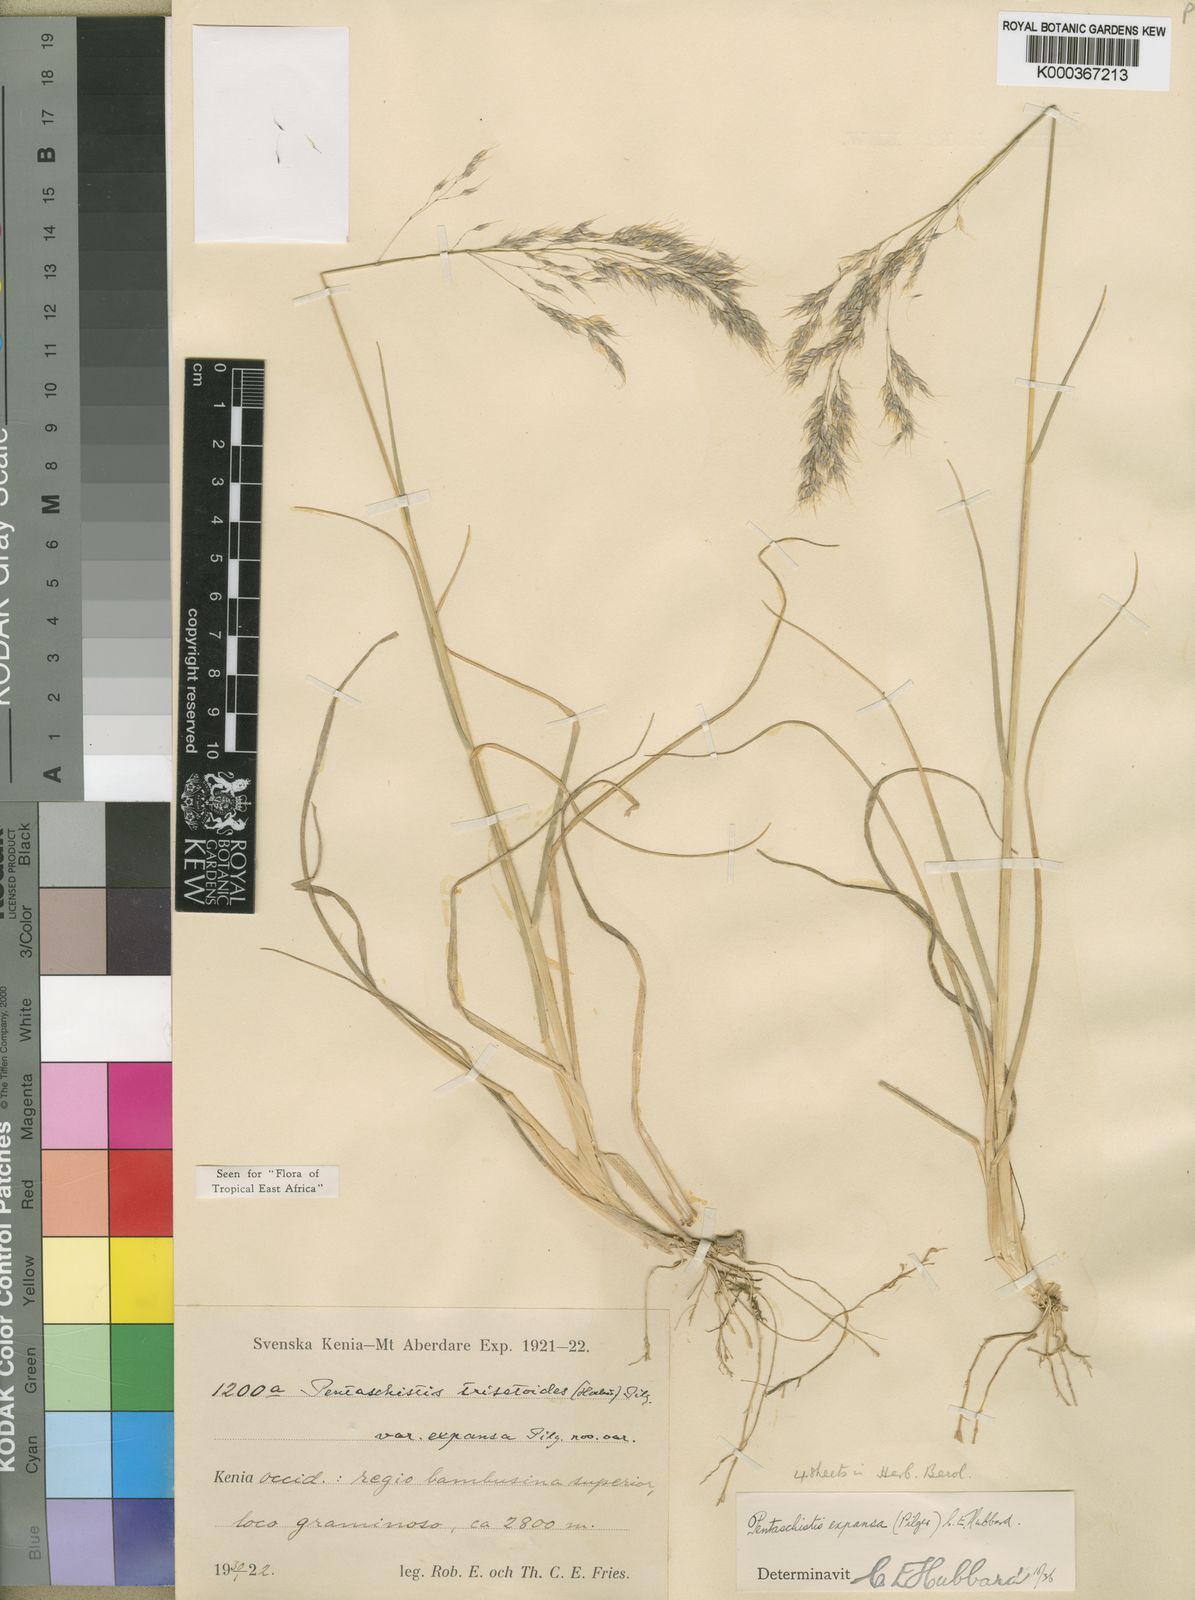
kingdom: Plantae
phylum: Tracheophyta
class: Liliopsida
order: Poales
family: Poaceae
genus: Pentameris
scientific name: Pentameris borussica
